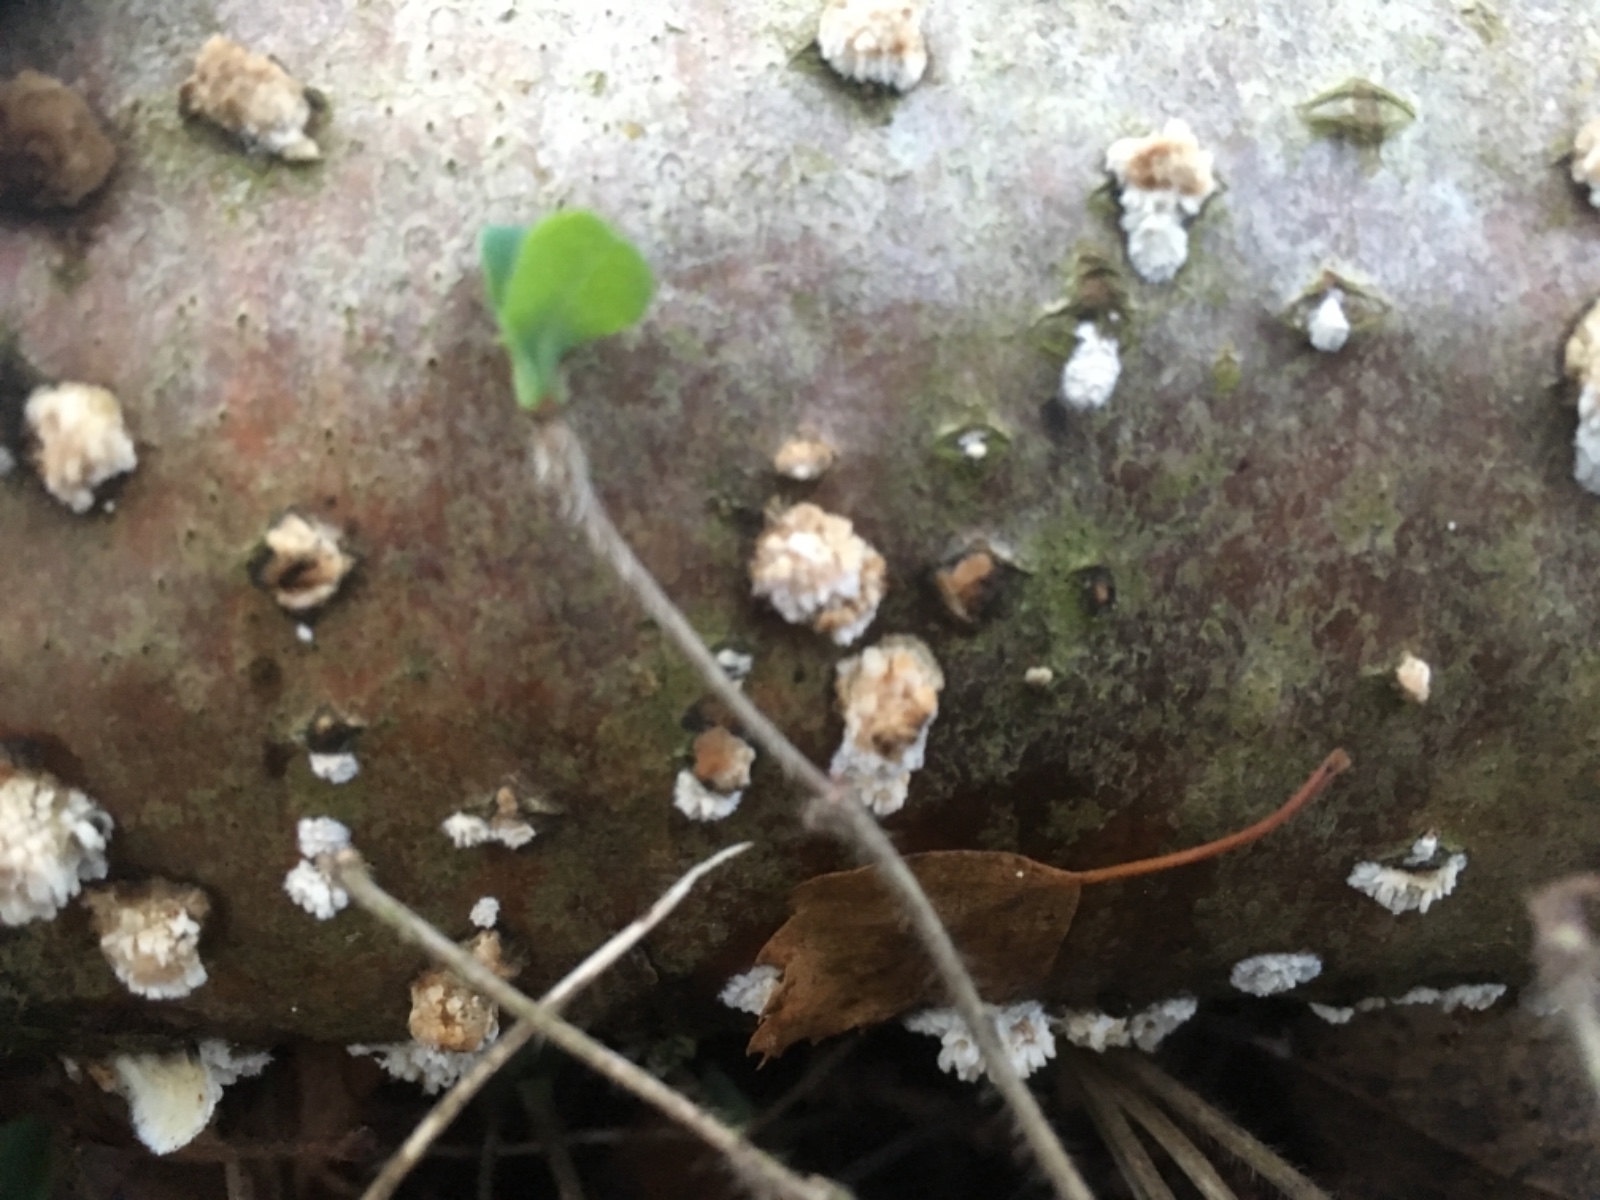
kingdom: Fungi
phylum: Basidiomycota
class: Agaricomycetes
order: Hymenochaetales
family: Schizoporaceae
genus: Xylodon
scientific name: Xylodon radula
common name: grovtandet kalkskind
